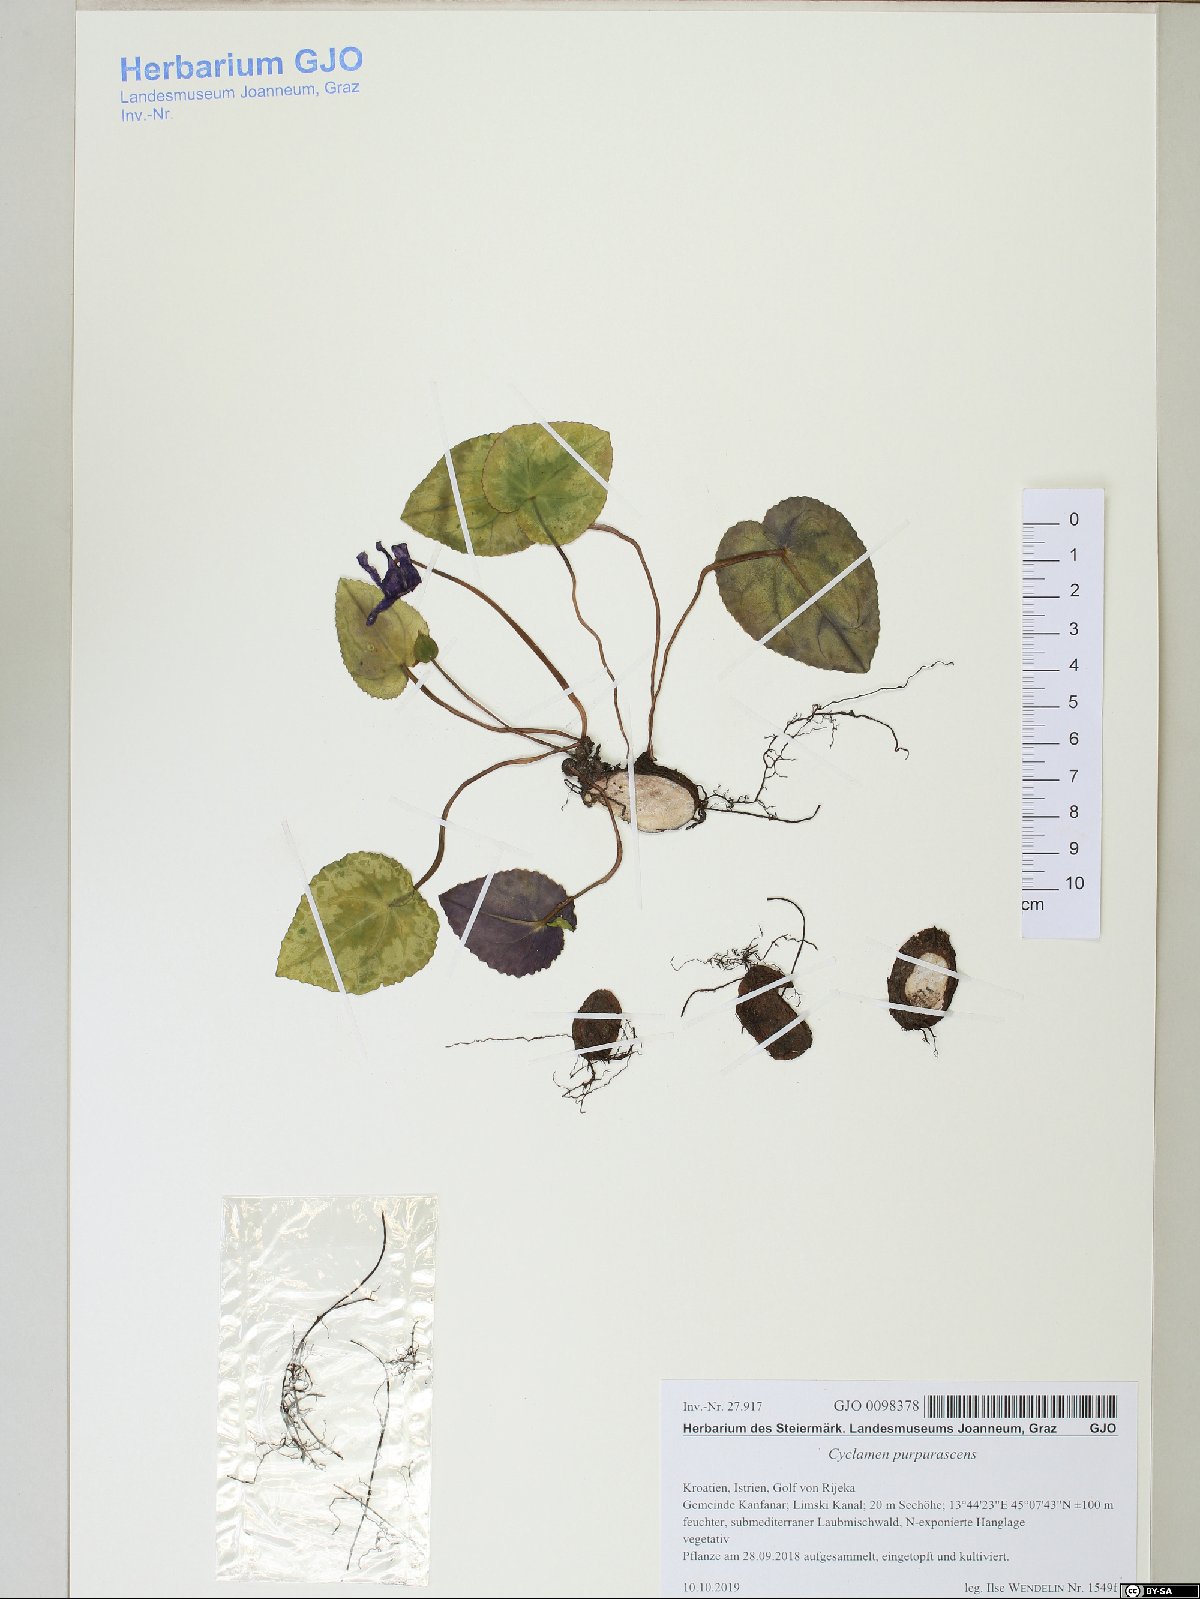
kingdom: Plantae
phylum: Tracheophyta
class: Magnoliopsida
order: Ericales
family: Primulaceae
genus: Cyclamen
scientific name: Cyclamen purpurascens
